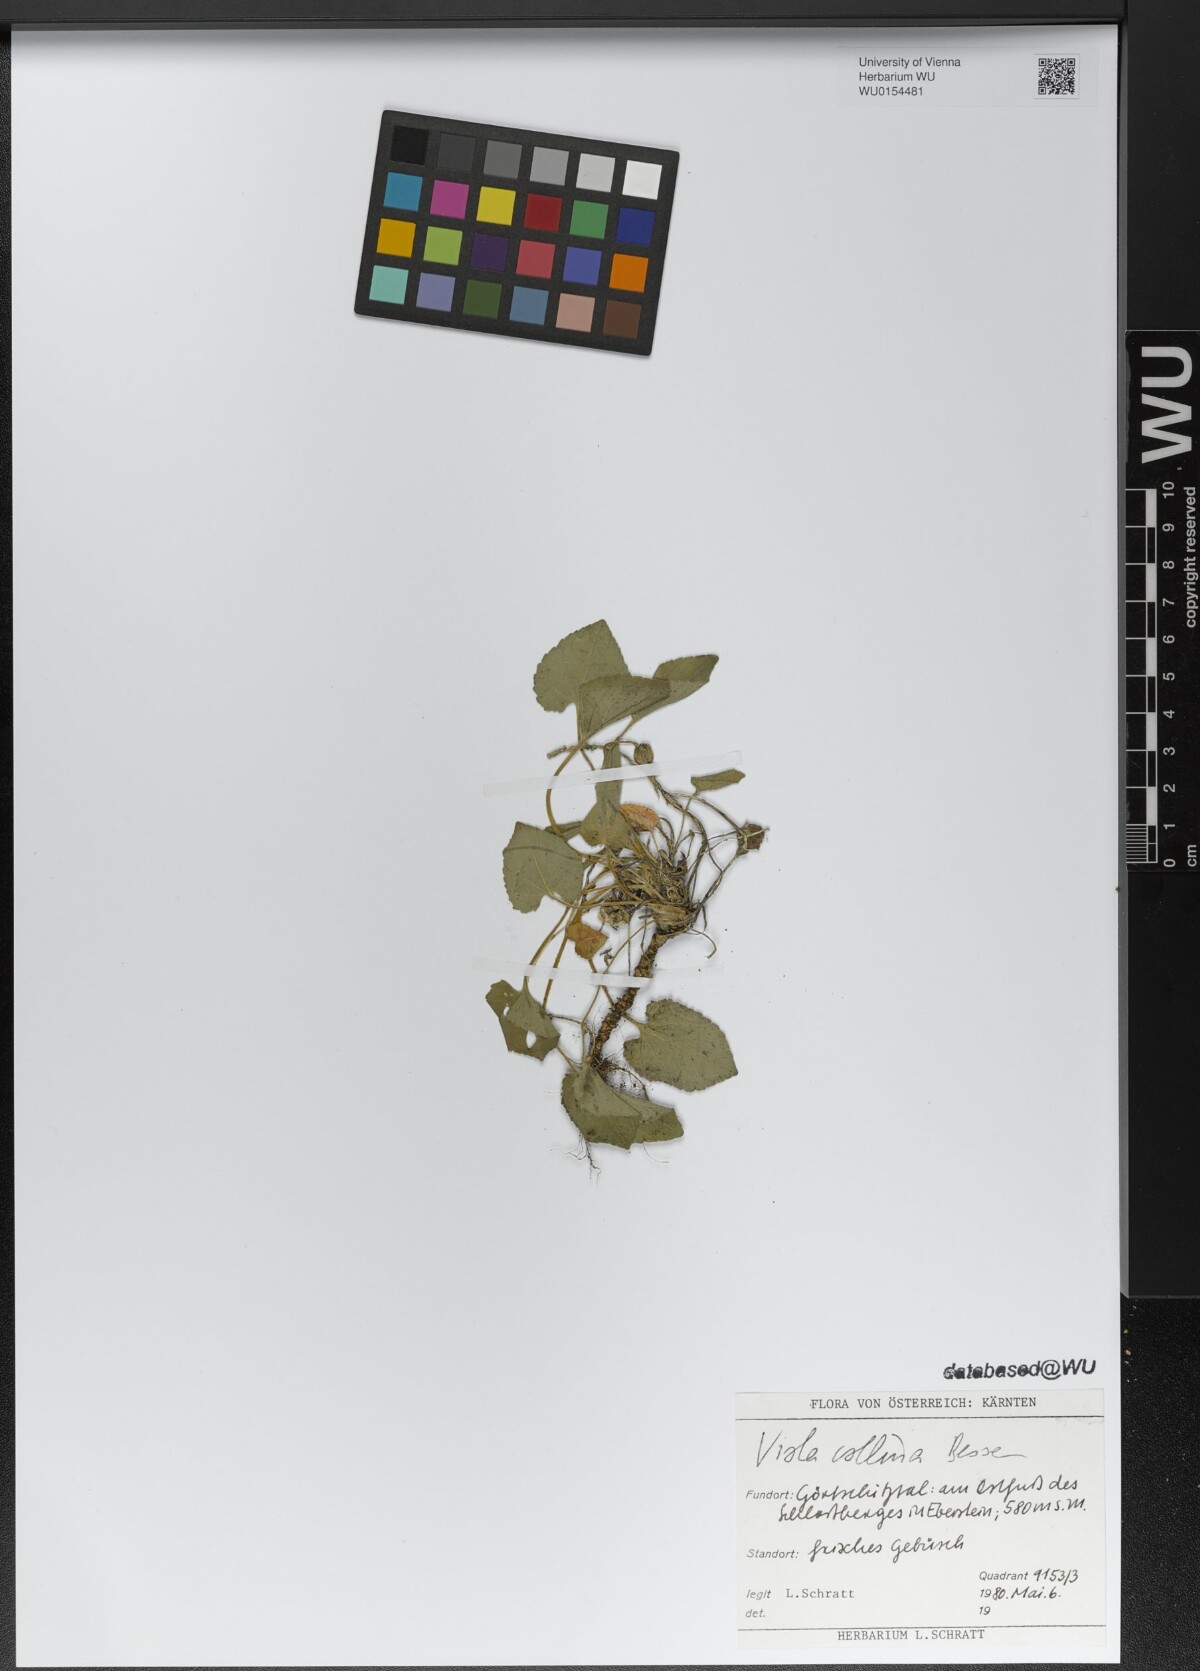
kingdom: Plantae
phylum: Tracheophyta
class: Magnoliopsida
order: Malpighiales
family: Violaceae
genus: Viola
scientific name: Viola collina
